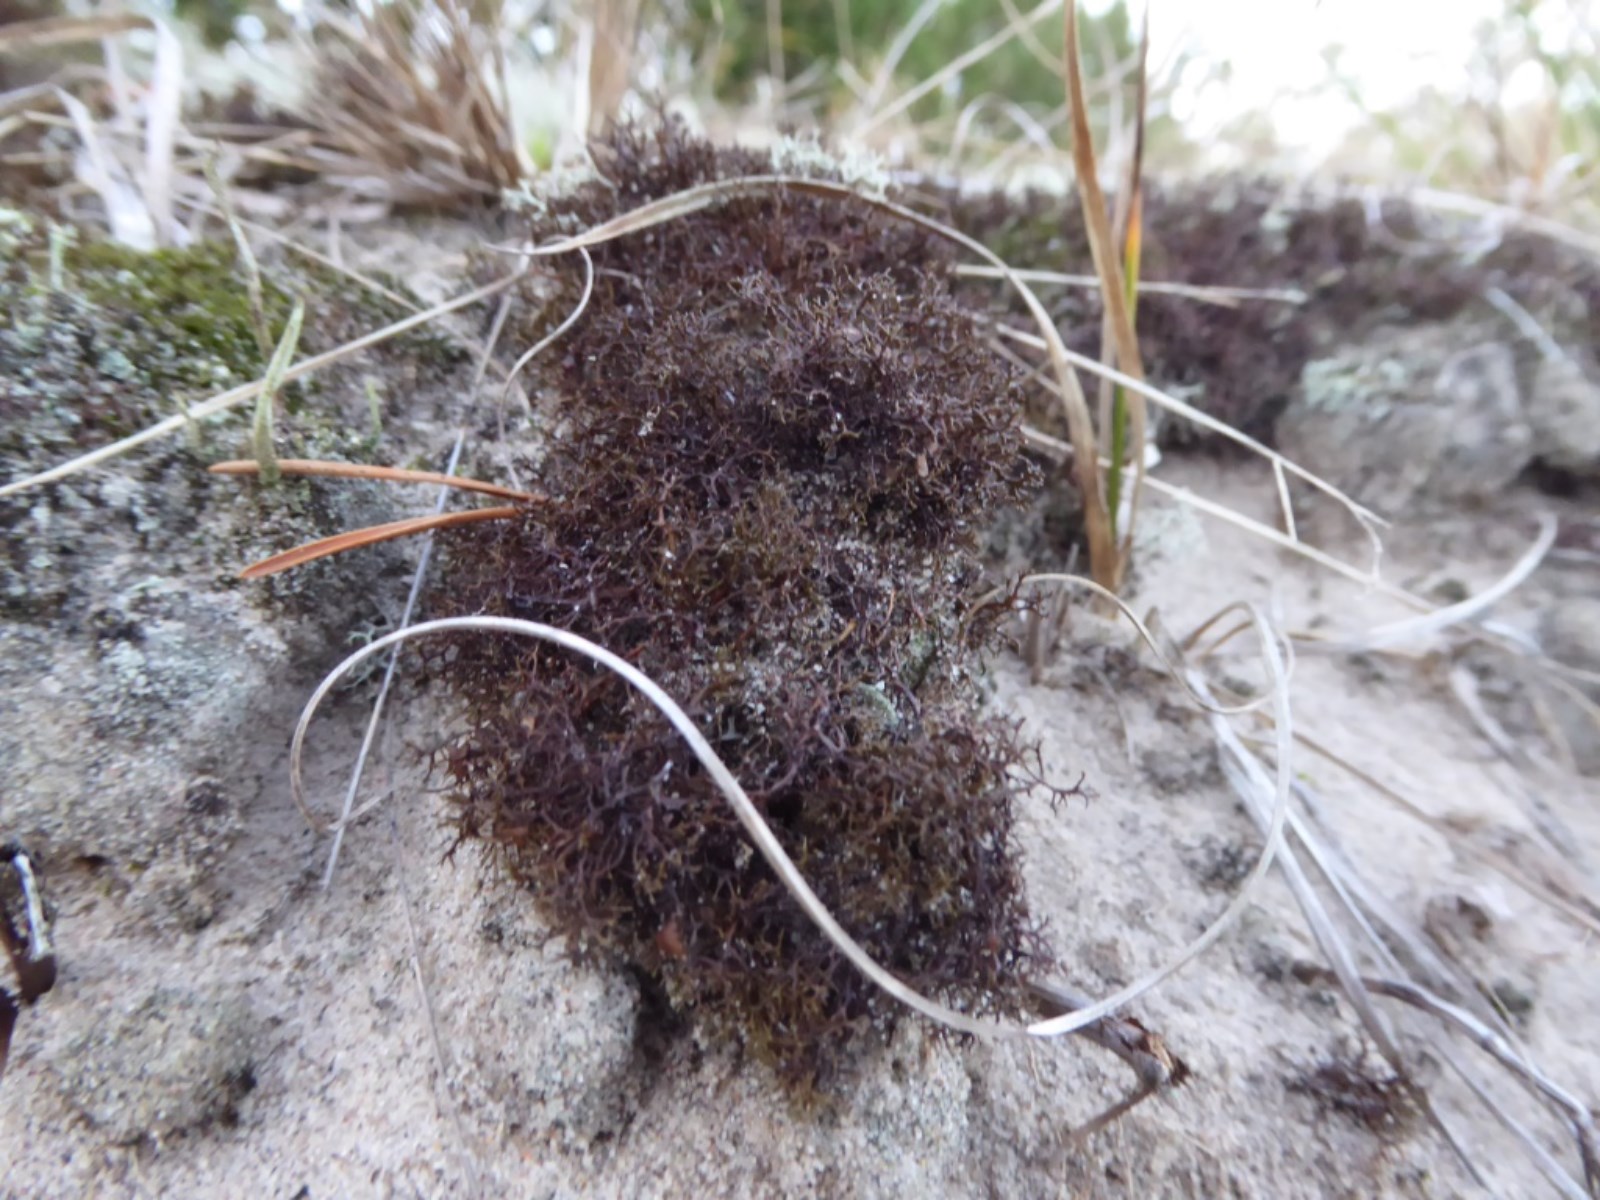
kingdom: Fungi
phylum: Ascomycota
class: Lecanoromycetes
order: Lecanorales
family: Parmeliaceae
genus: Cetraria
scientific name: Cetraria muricata
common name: tue-tjørnelav
